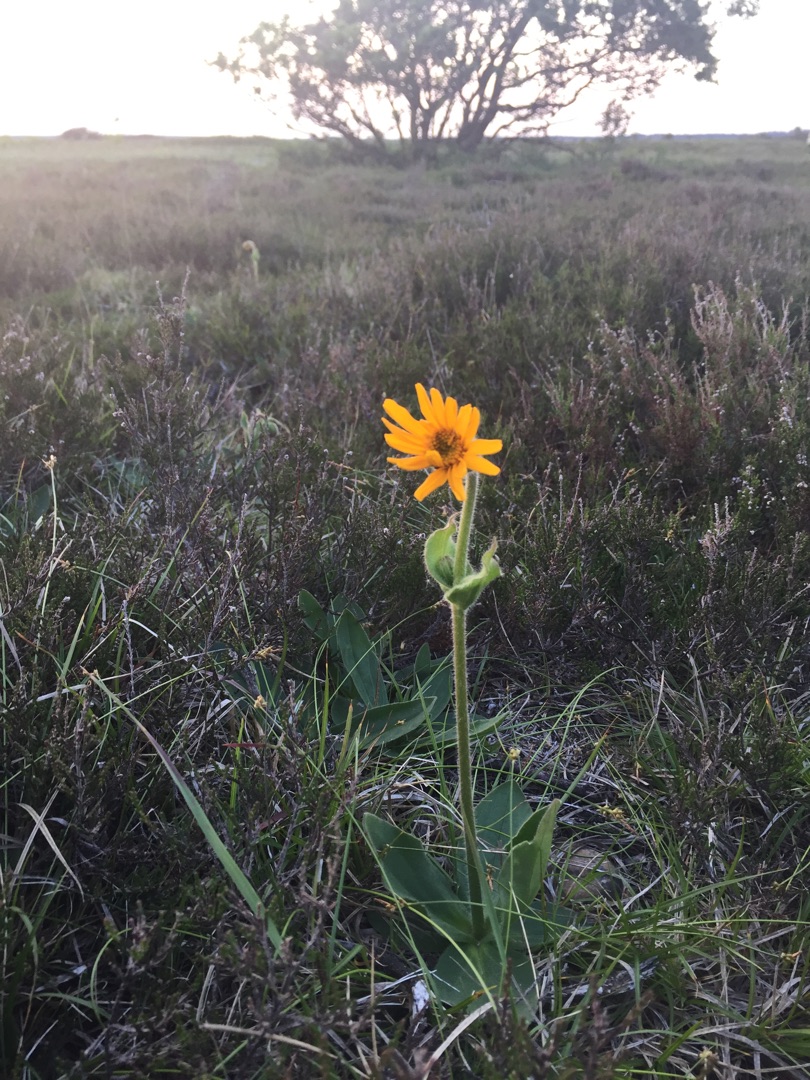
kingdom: Plantae
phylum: Tracheophyta
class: Magnoliopsida
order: Asterales
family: Asteraceae
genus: Arnica
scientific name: Arnica montana
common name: Guldblomme
